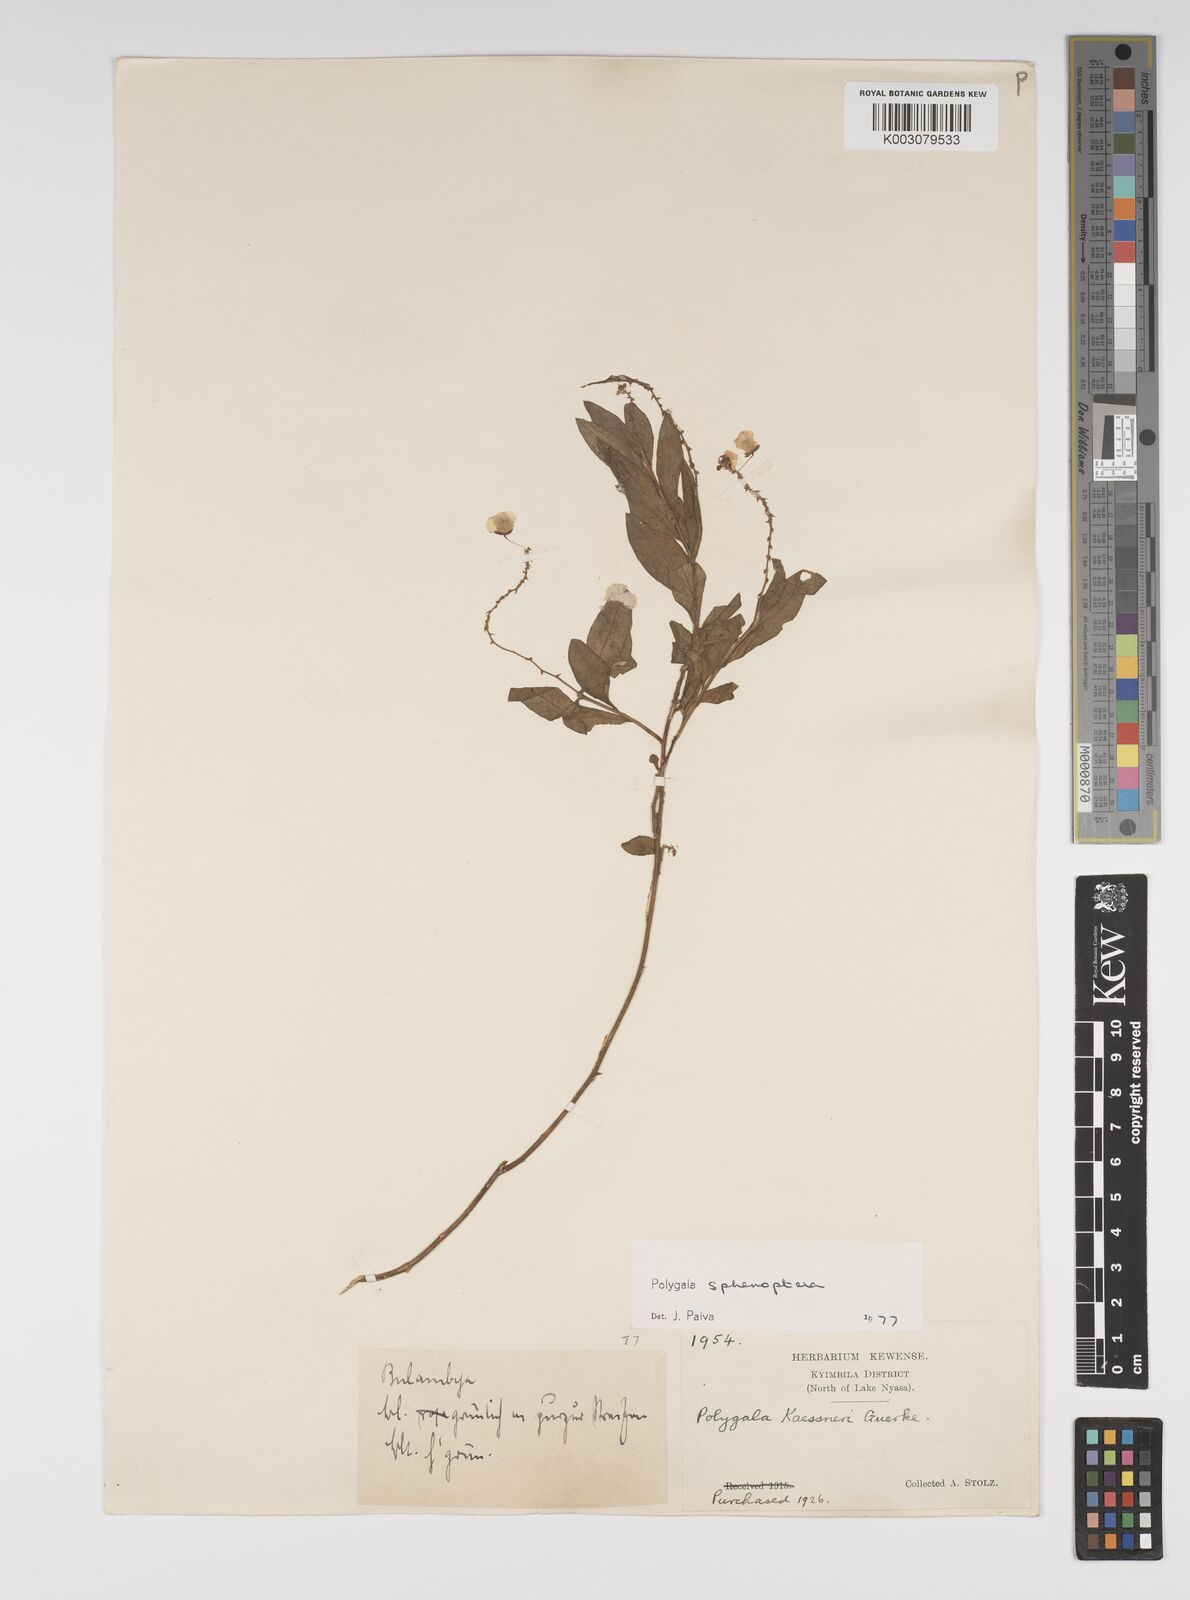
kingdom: Plantae
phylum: Tracheophyta
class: Magnoliopsida
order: Fabales
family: Polygalaceae
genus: Polygala
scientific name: Polygala sphenoptera
